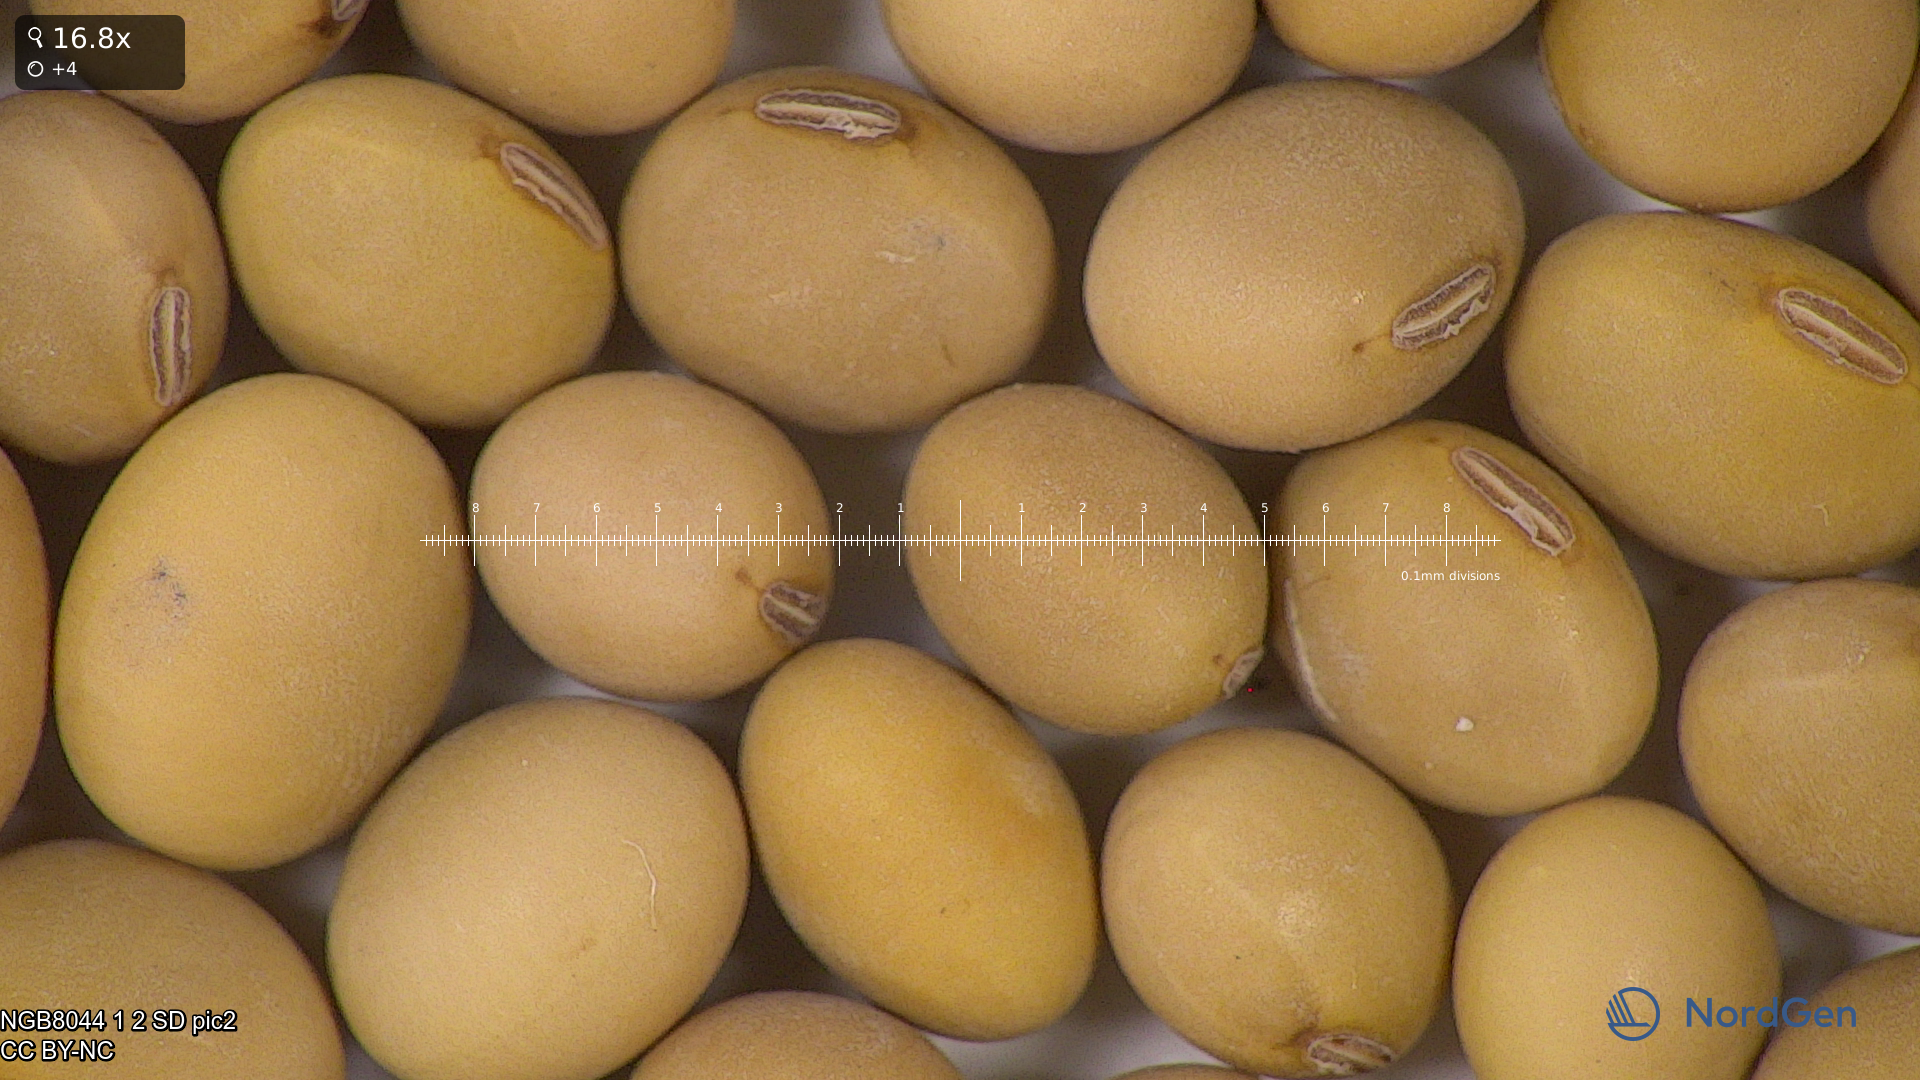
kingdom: Plantae
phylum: Tracheophyta
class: Magnoliopsida
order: Fabales
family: Fabaceae
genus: Glycine
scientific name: Glycine max
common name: Soya-bean
